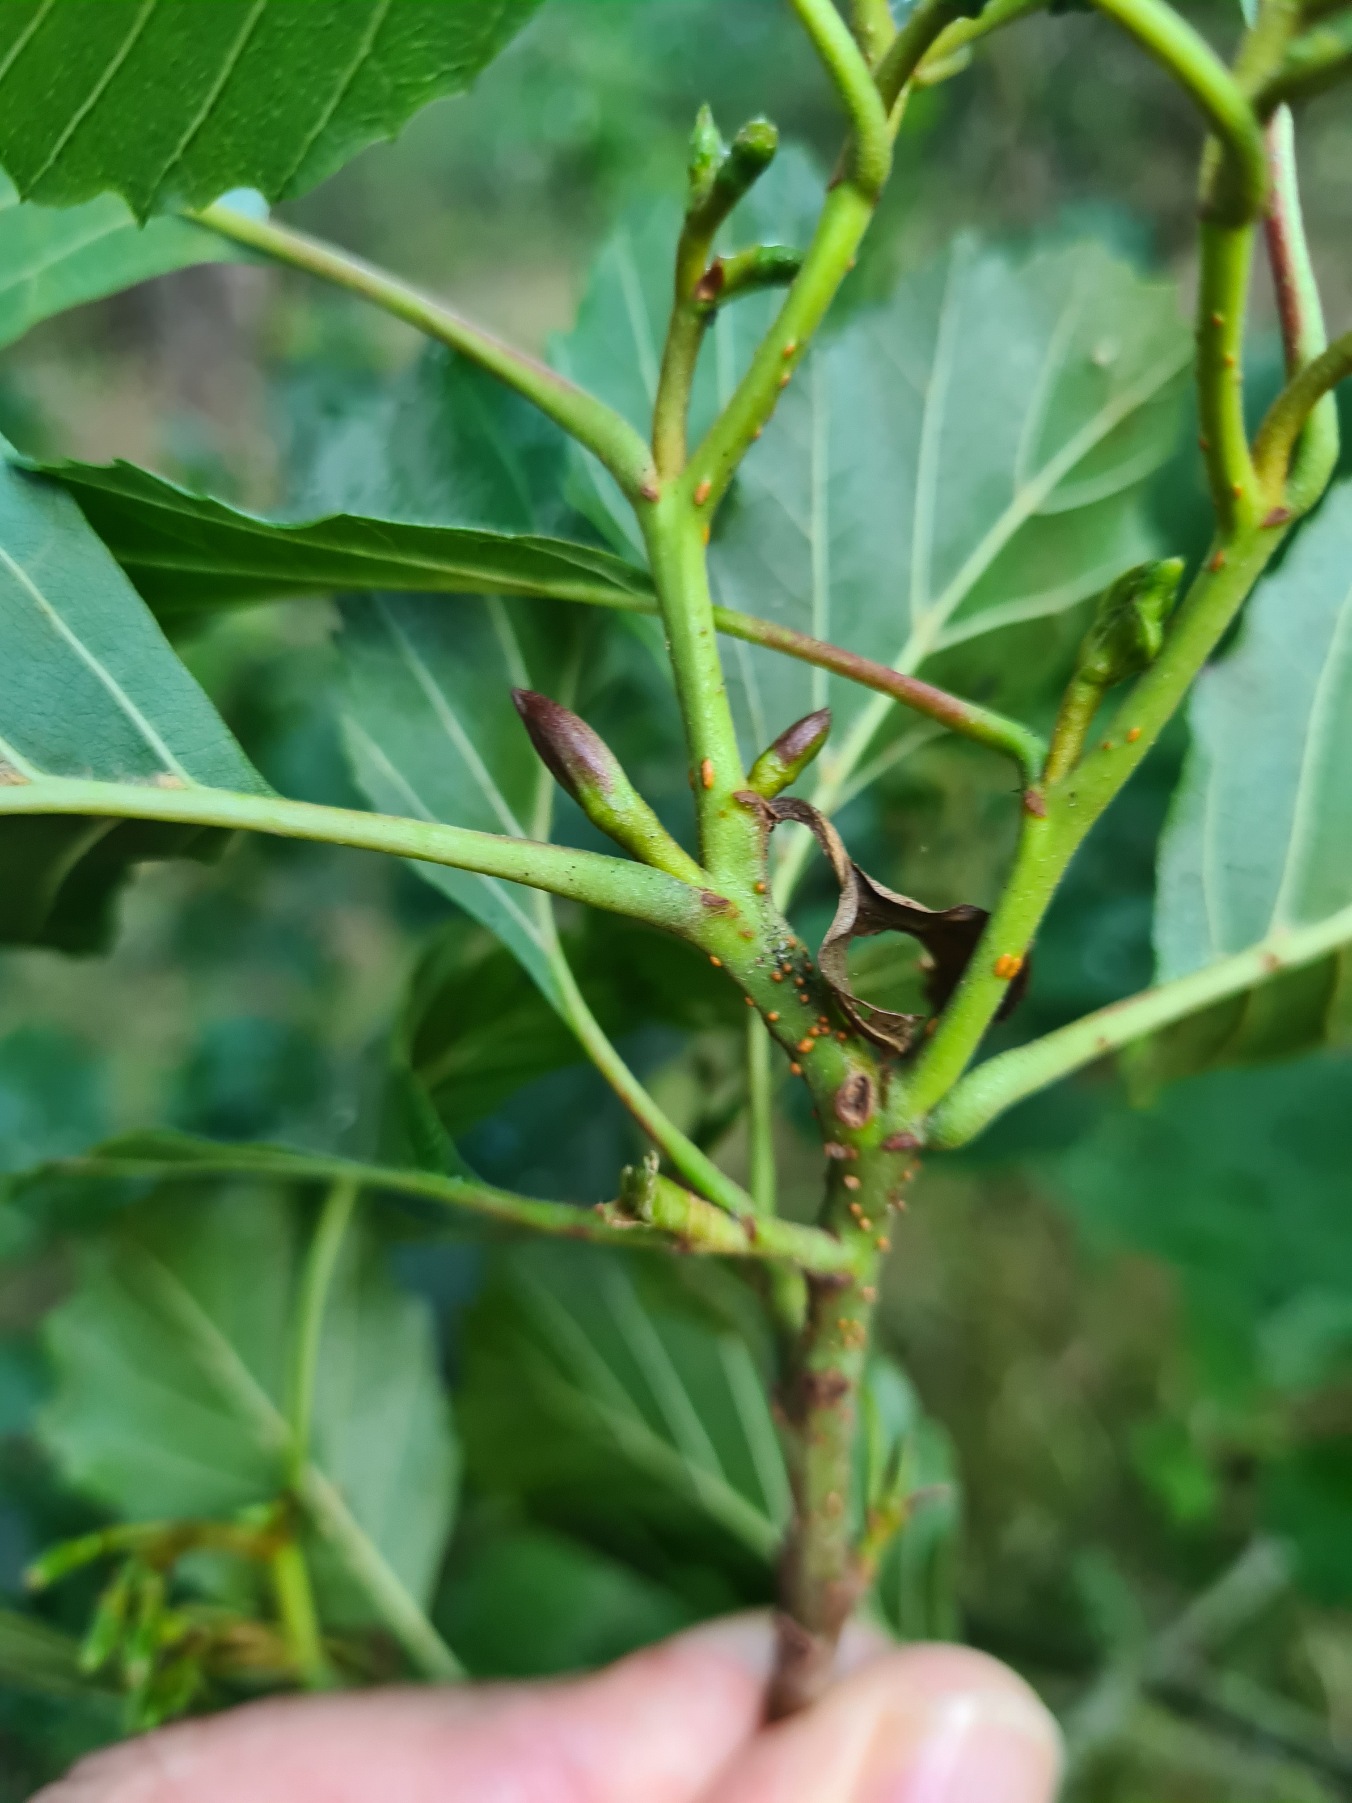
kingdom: Plantae
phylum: Tracheophyta
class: Magnoliopsida
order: Fagales
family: Betulaceae
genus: Alnus
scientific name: Alnus glutinosa
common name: Rød-el
